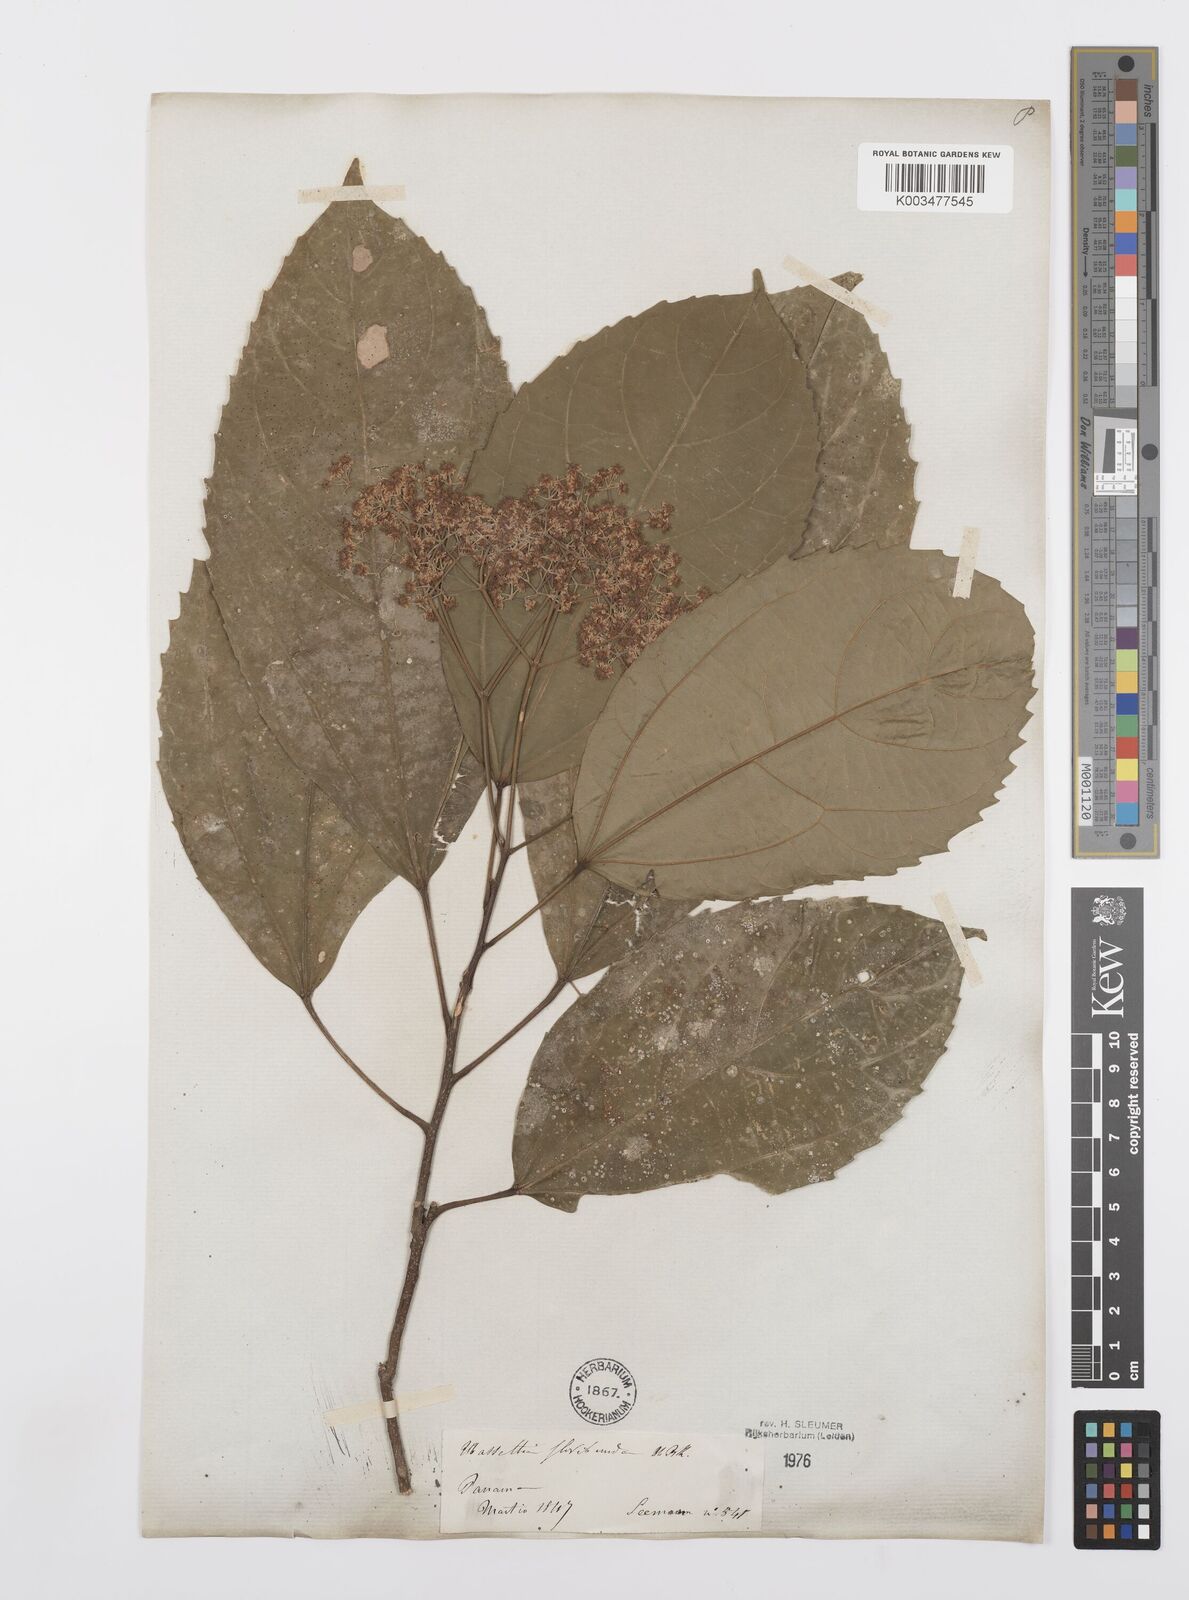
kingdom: Plantae
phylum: Tracheophyta
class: Magnoliopsida
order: Malpighiales
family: Salicaceae
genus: Hasseltia
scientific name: Hasseltia floribunda
